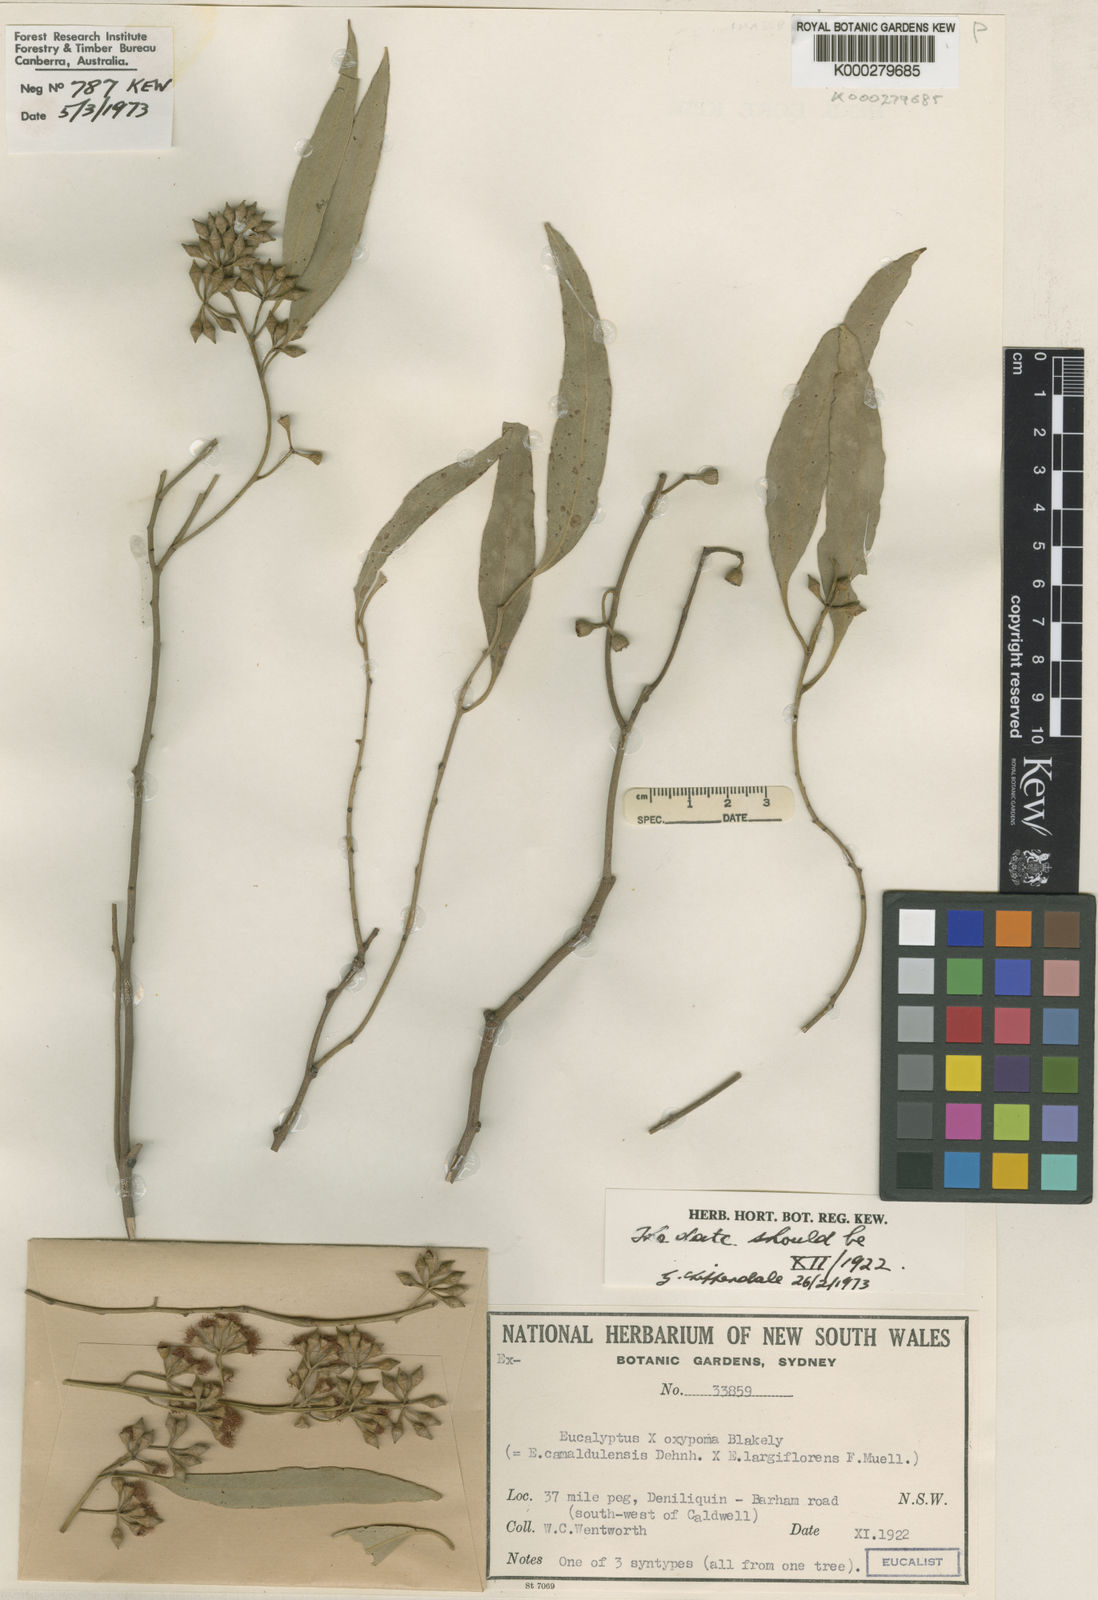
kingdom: Plantae
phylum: Tracheophyta
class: Magnoliopsida
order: Myrtales
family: Myrtaceae
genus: Eucalyptus
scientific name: Eucalyptus camaldulensis
